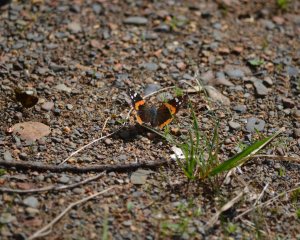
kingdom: Animalia
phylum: Arthropoda
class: Insecta
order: Lepidoptera
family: Nymphalidae
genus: Vanessa
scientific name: Vanessa atalanta
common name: Red Admiral
